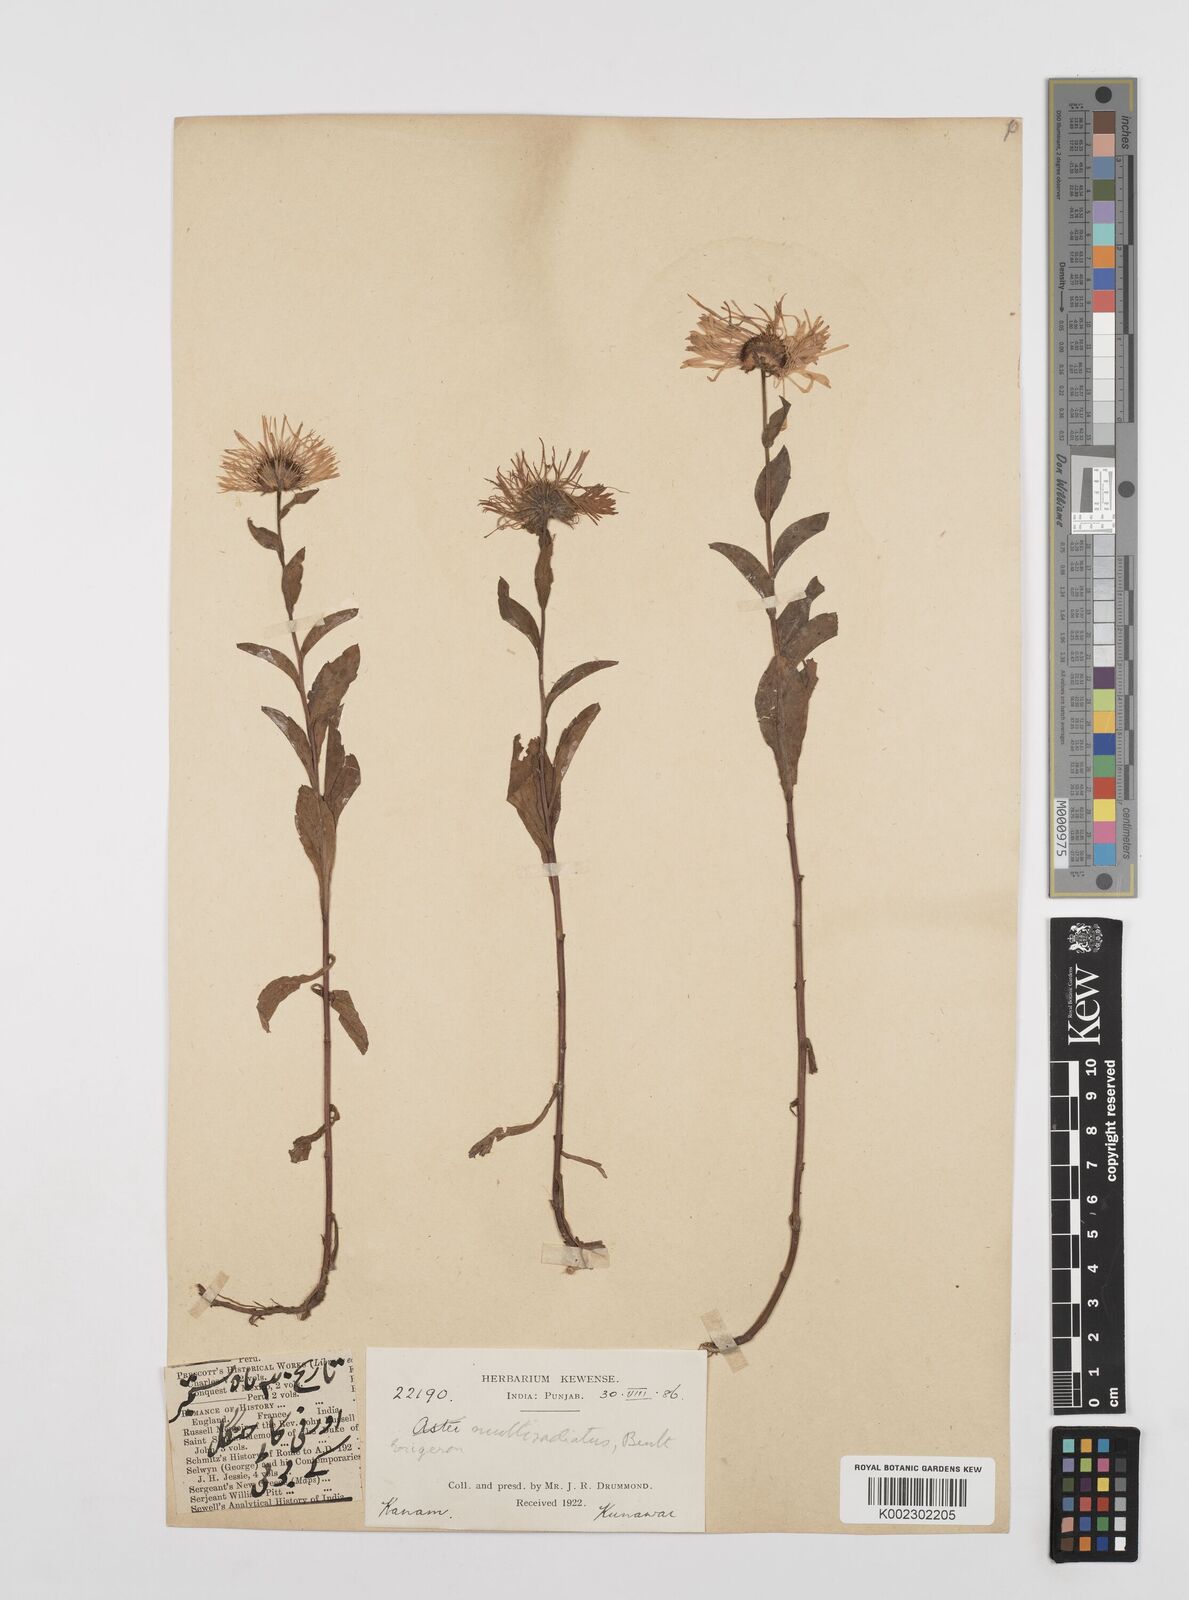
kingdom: Plantae
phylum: Tracheophyta
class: Magnoliopsida
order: Asterales
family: Asteraceae
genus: Erigeron
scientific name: Erigeron multiradiatus
